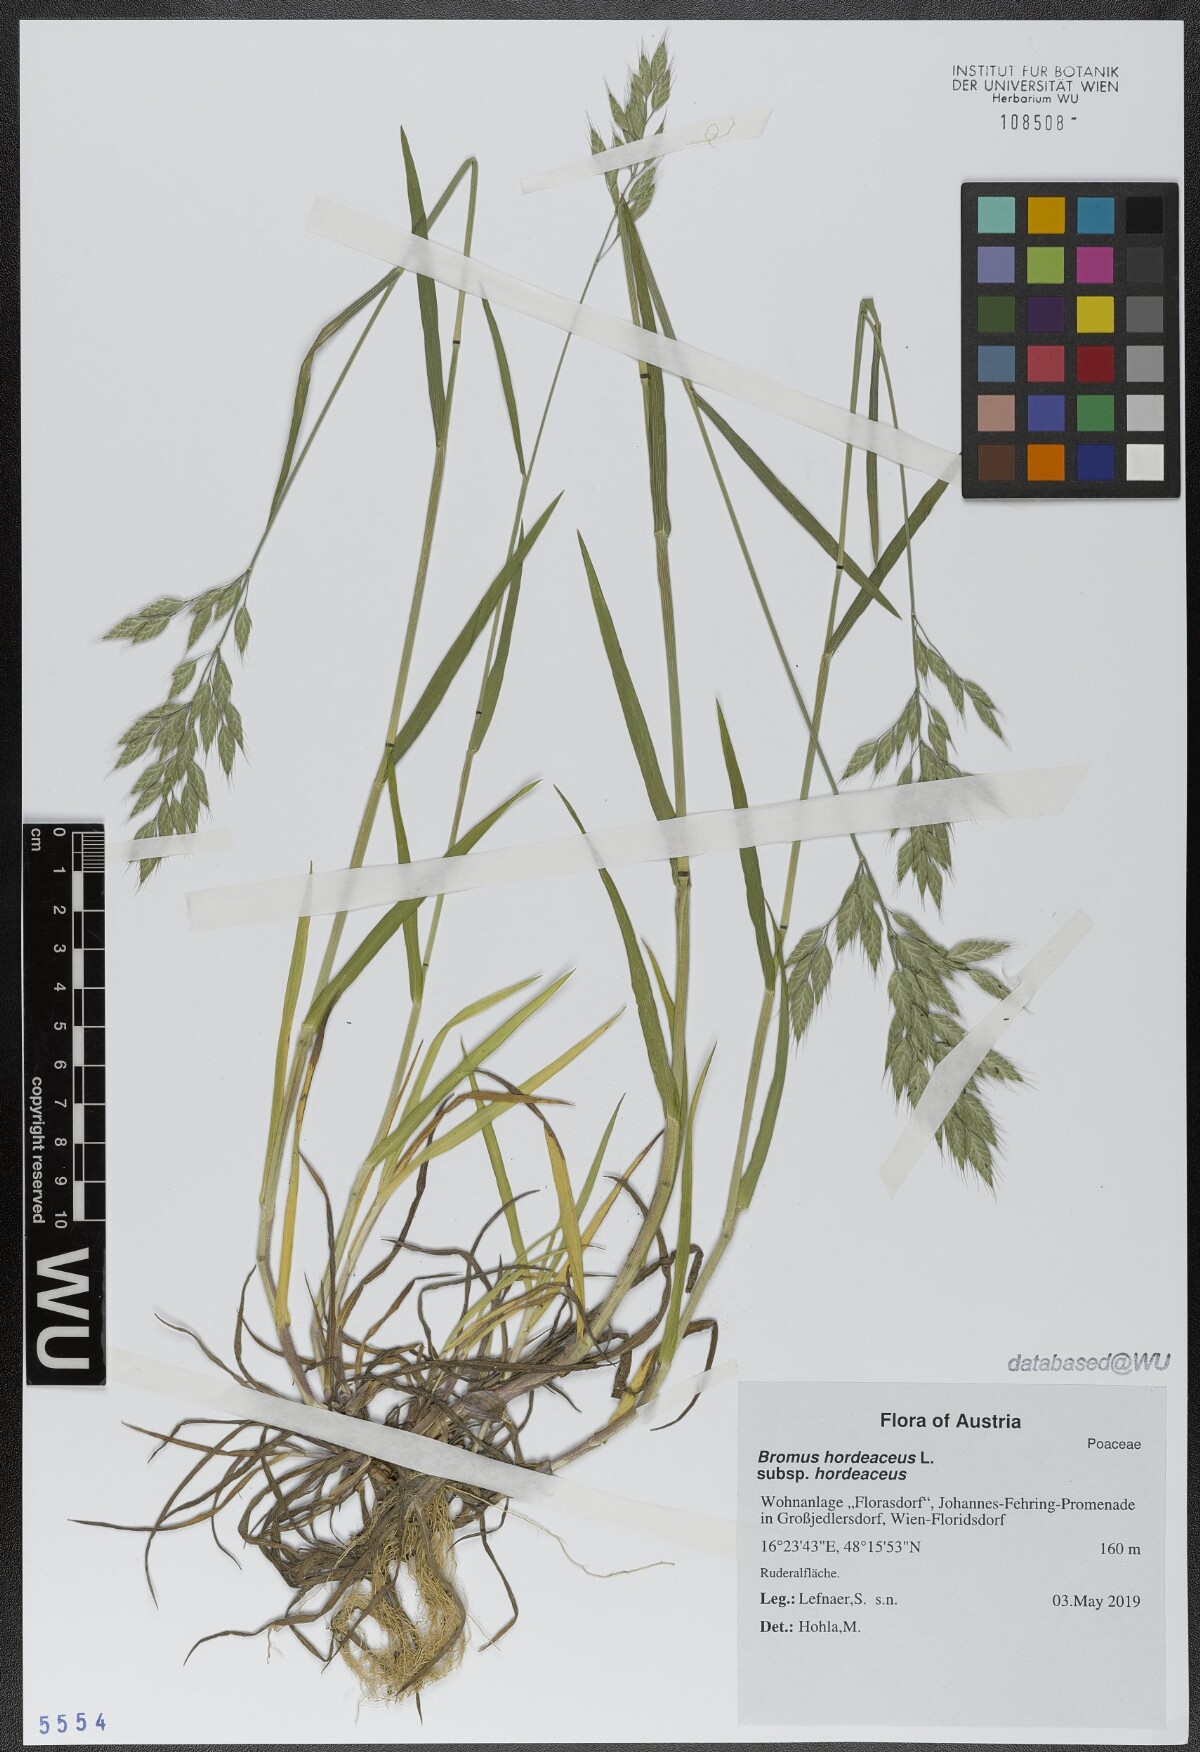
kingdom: Plantae
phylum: Tracheophyta
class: Liliopsida
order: Poales
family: Poaceae
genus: Bromus
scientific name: Bromus hordeaceus
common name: Soft brome
